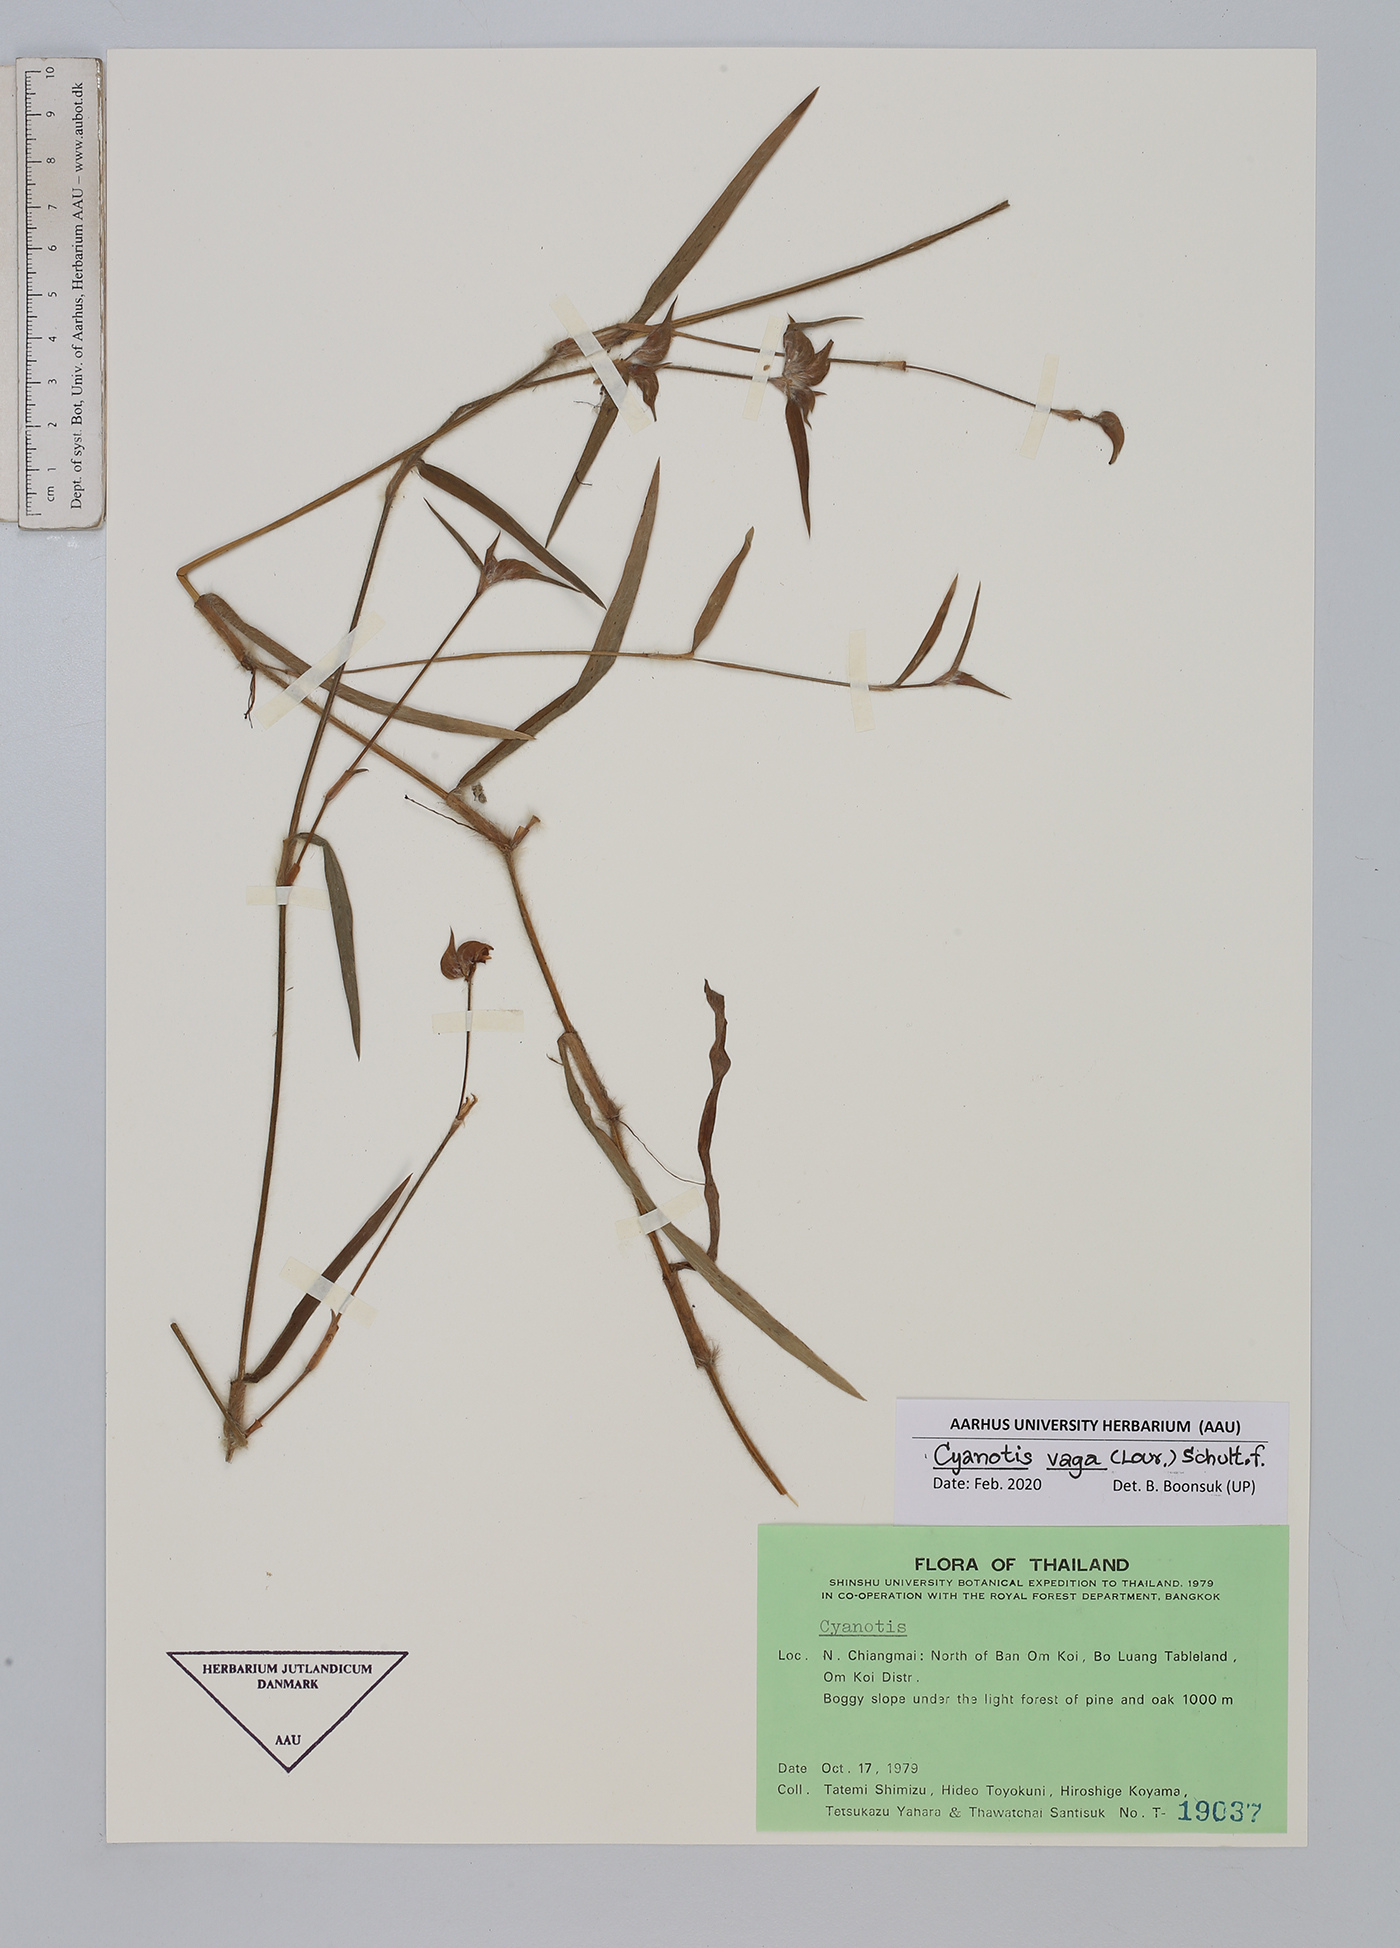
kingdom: Plantae
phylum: Tracheophyta
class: Liliopsida
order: Commelinales
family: Commelinaceae
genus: Cyanotis
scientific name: Cyanotis vaga
